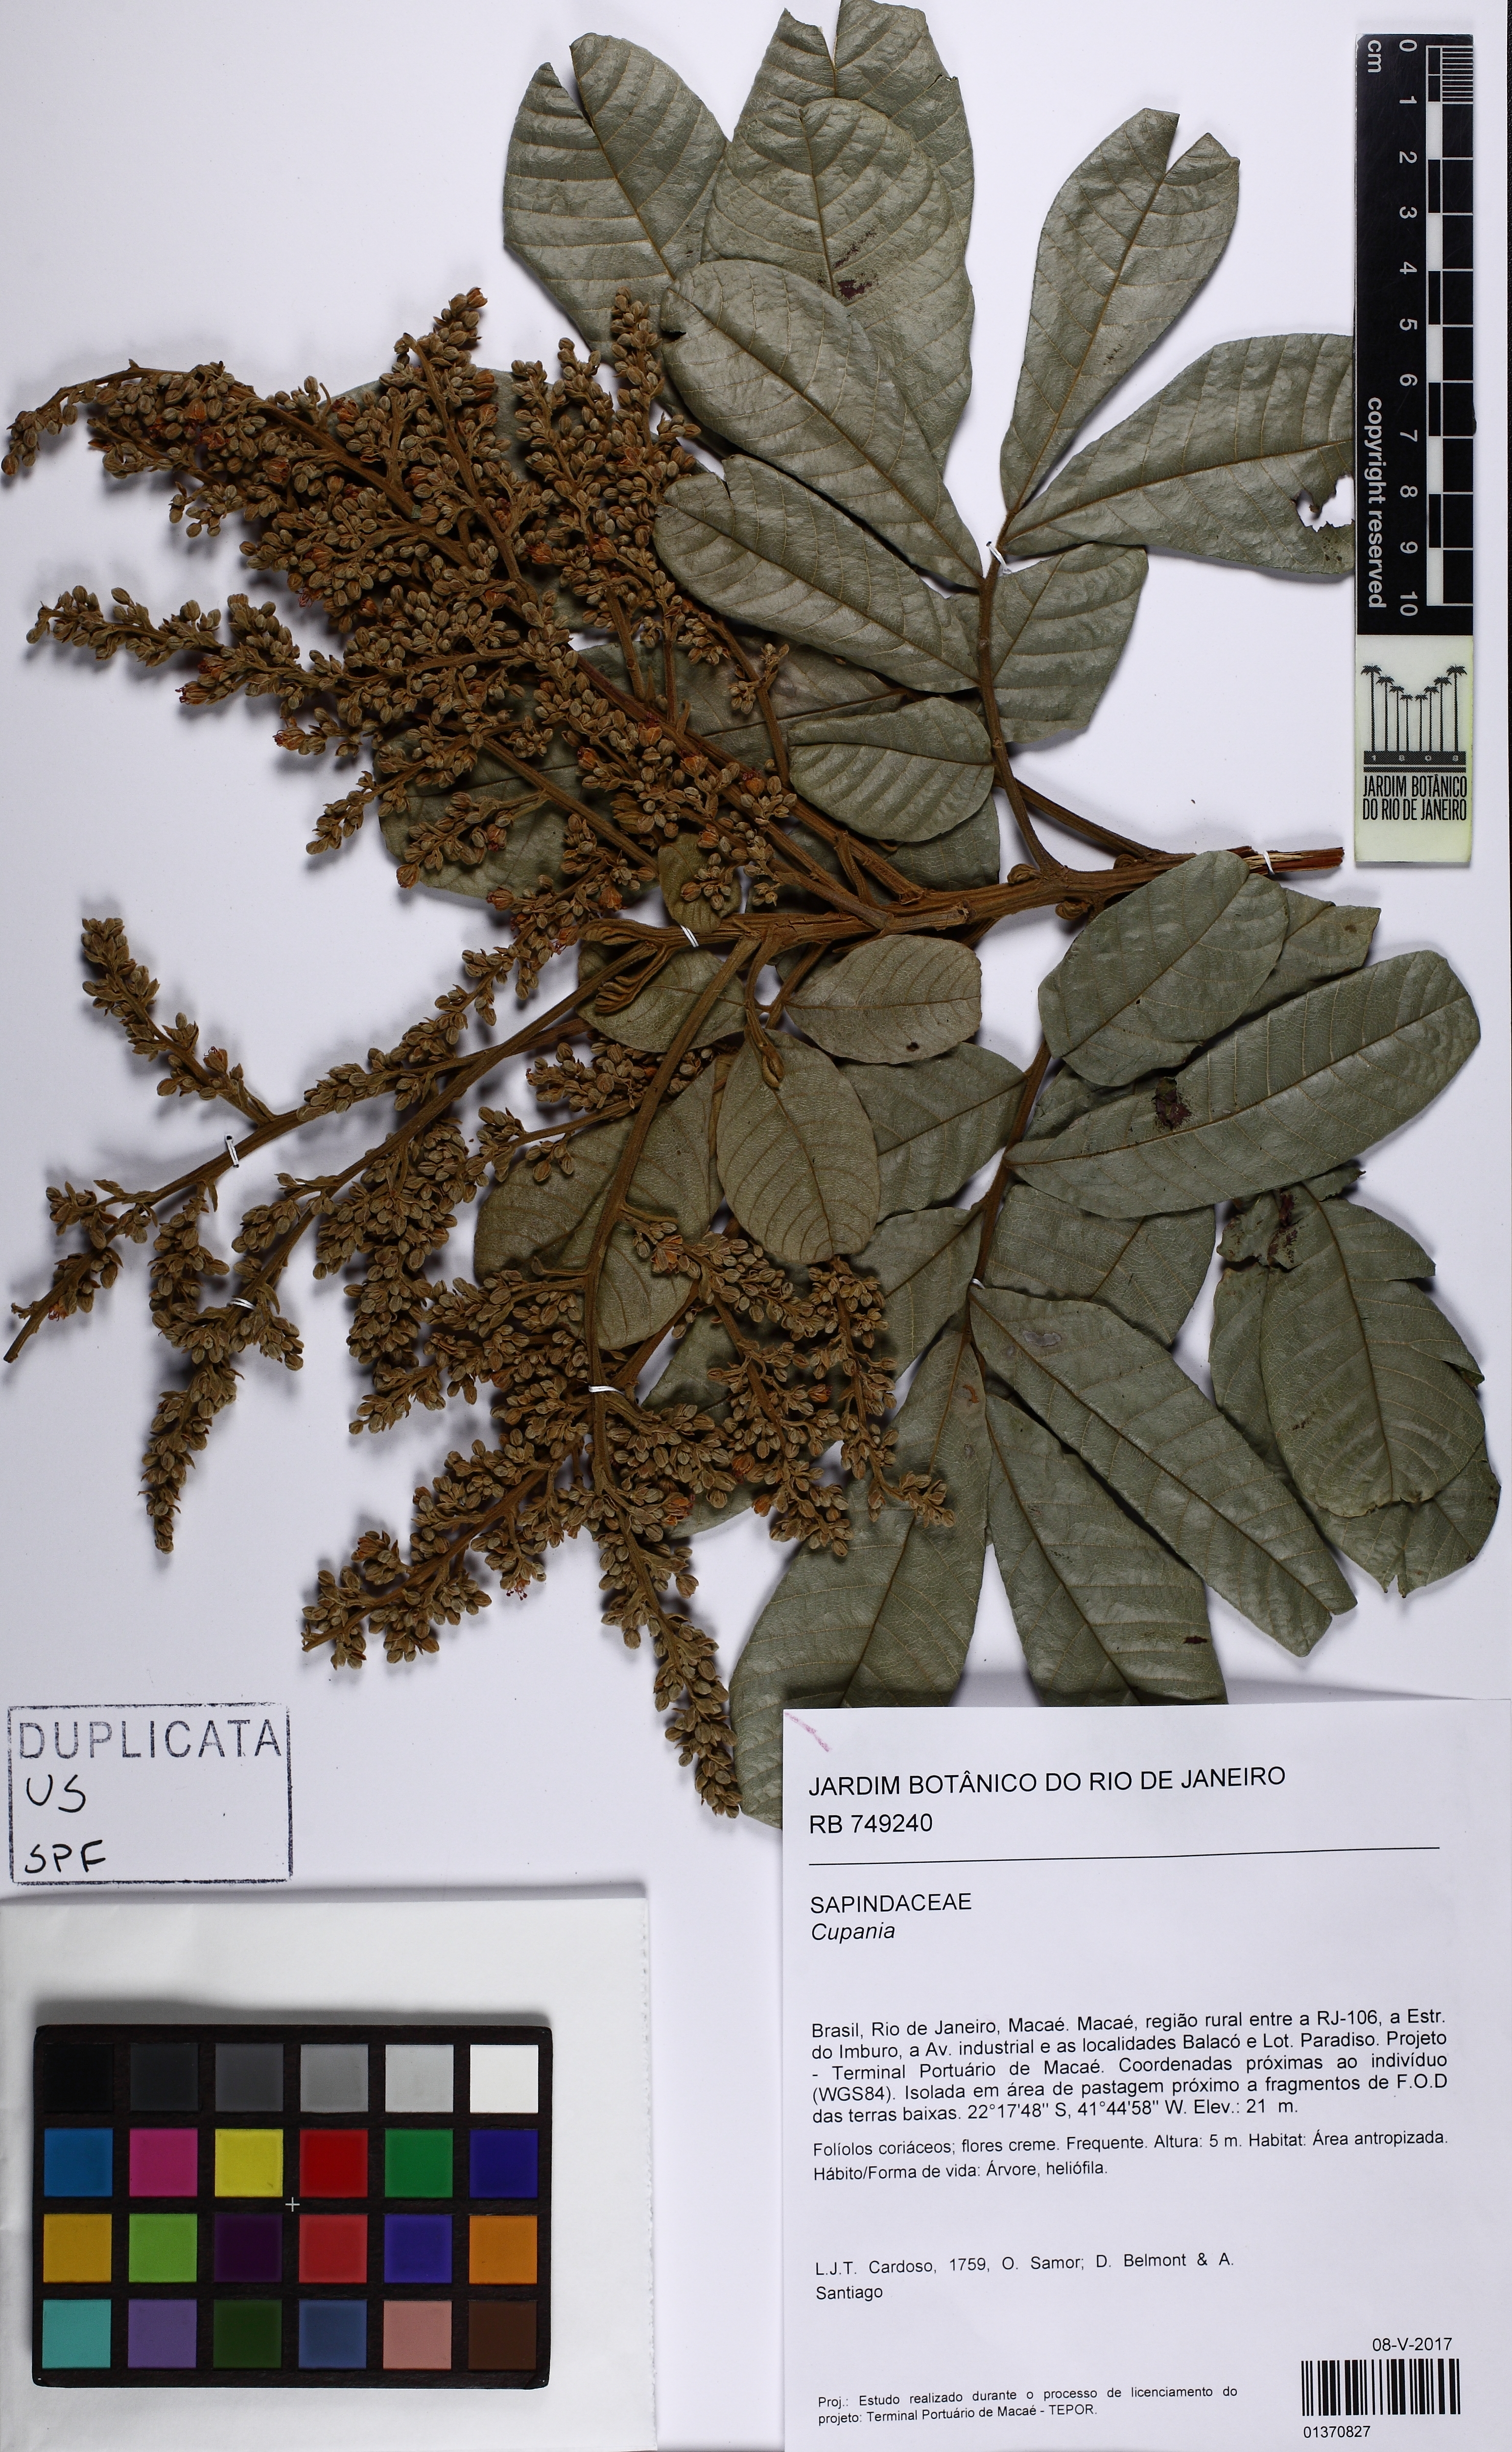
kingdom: Plantae
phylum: Tracheophyta
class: Magnoliopsida
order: Sapindales
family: Sapindaceae
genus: Cupania
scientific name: Cupania
